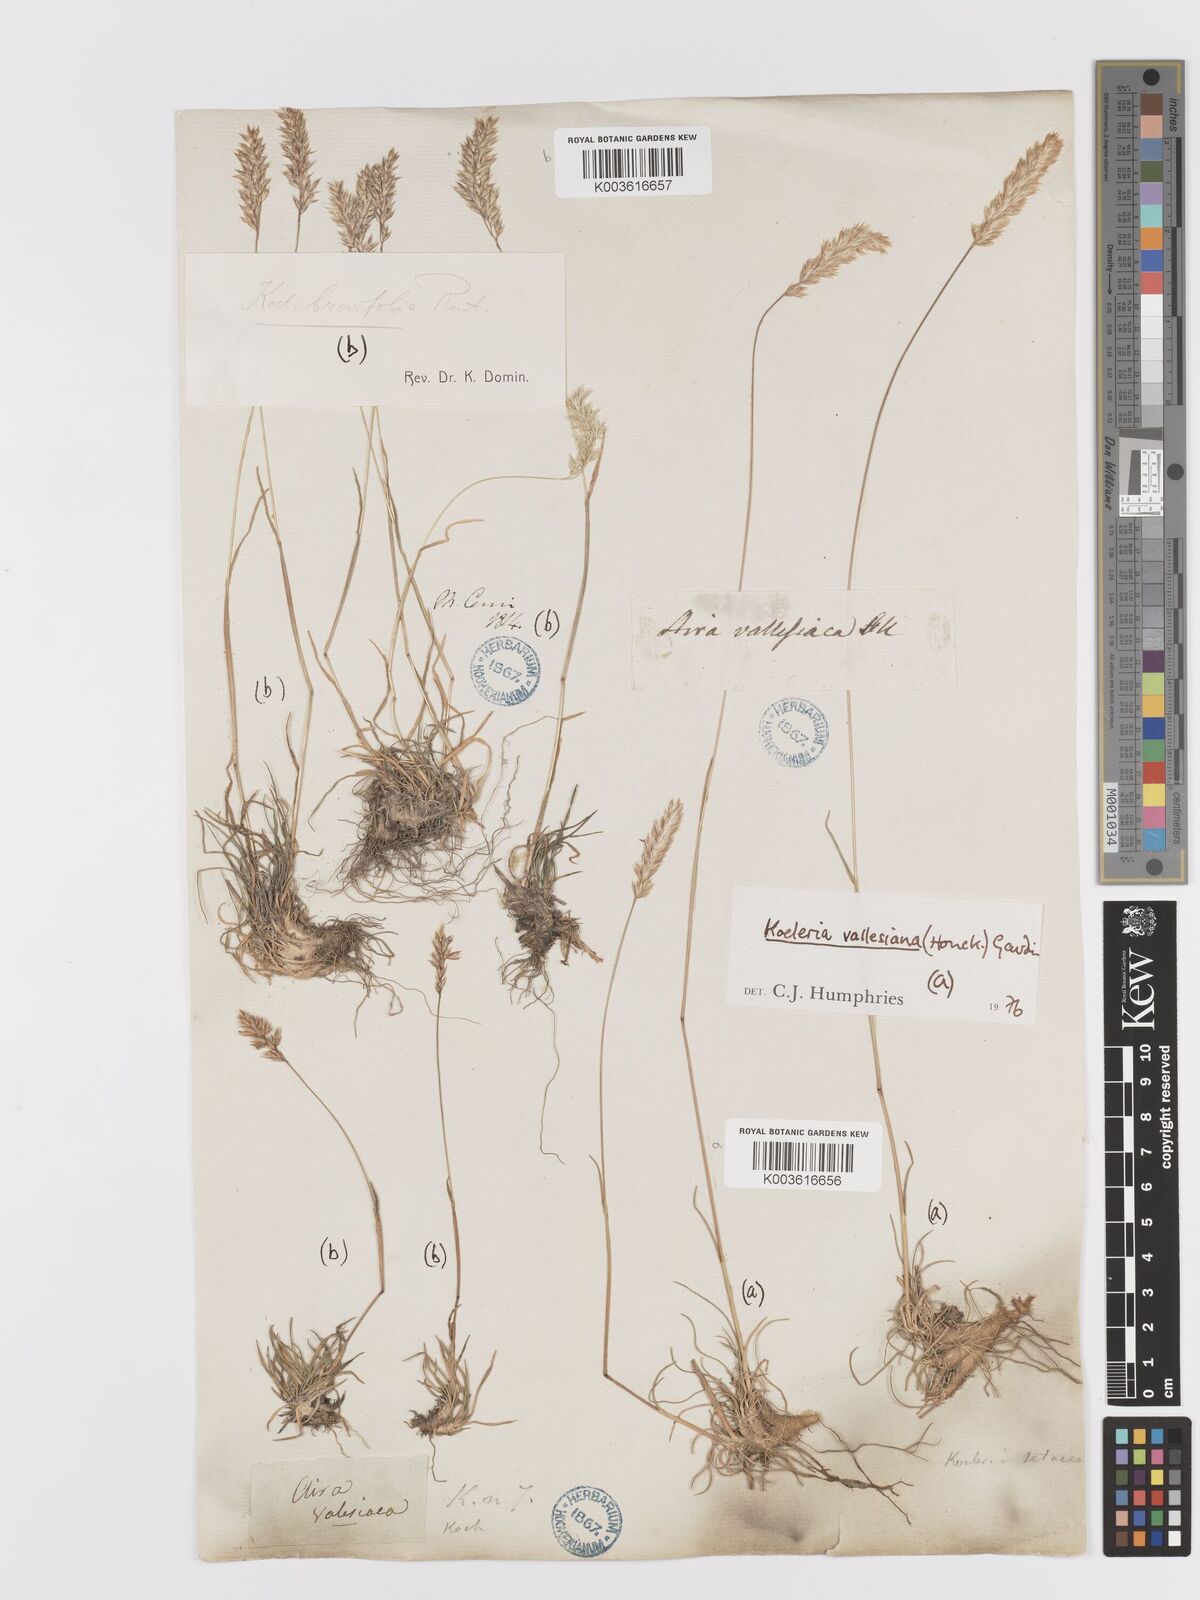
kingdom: Plantae
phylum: Tracheophyta
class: Liliopsida
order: Poales
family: Poaceae
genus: Koeleria
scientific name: Koeleria cenisia
